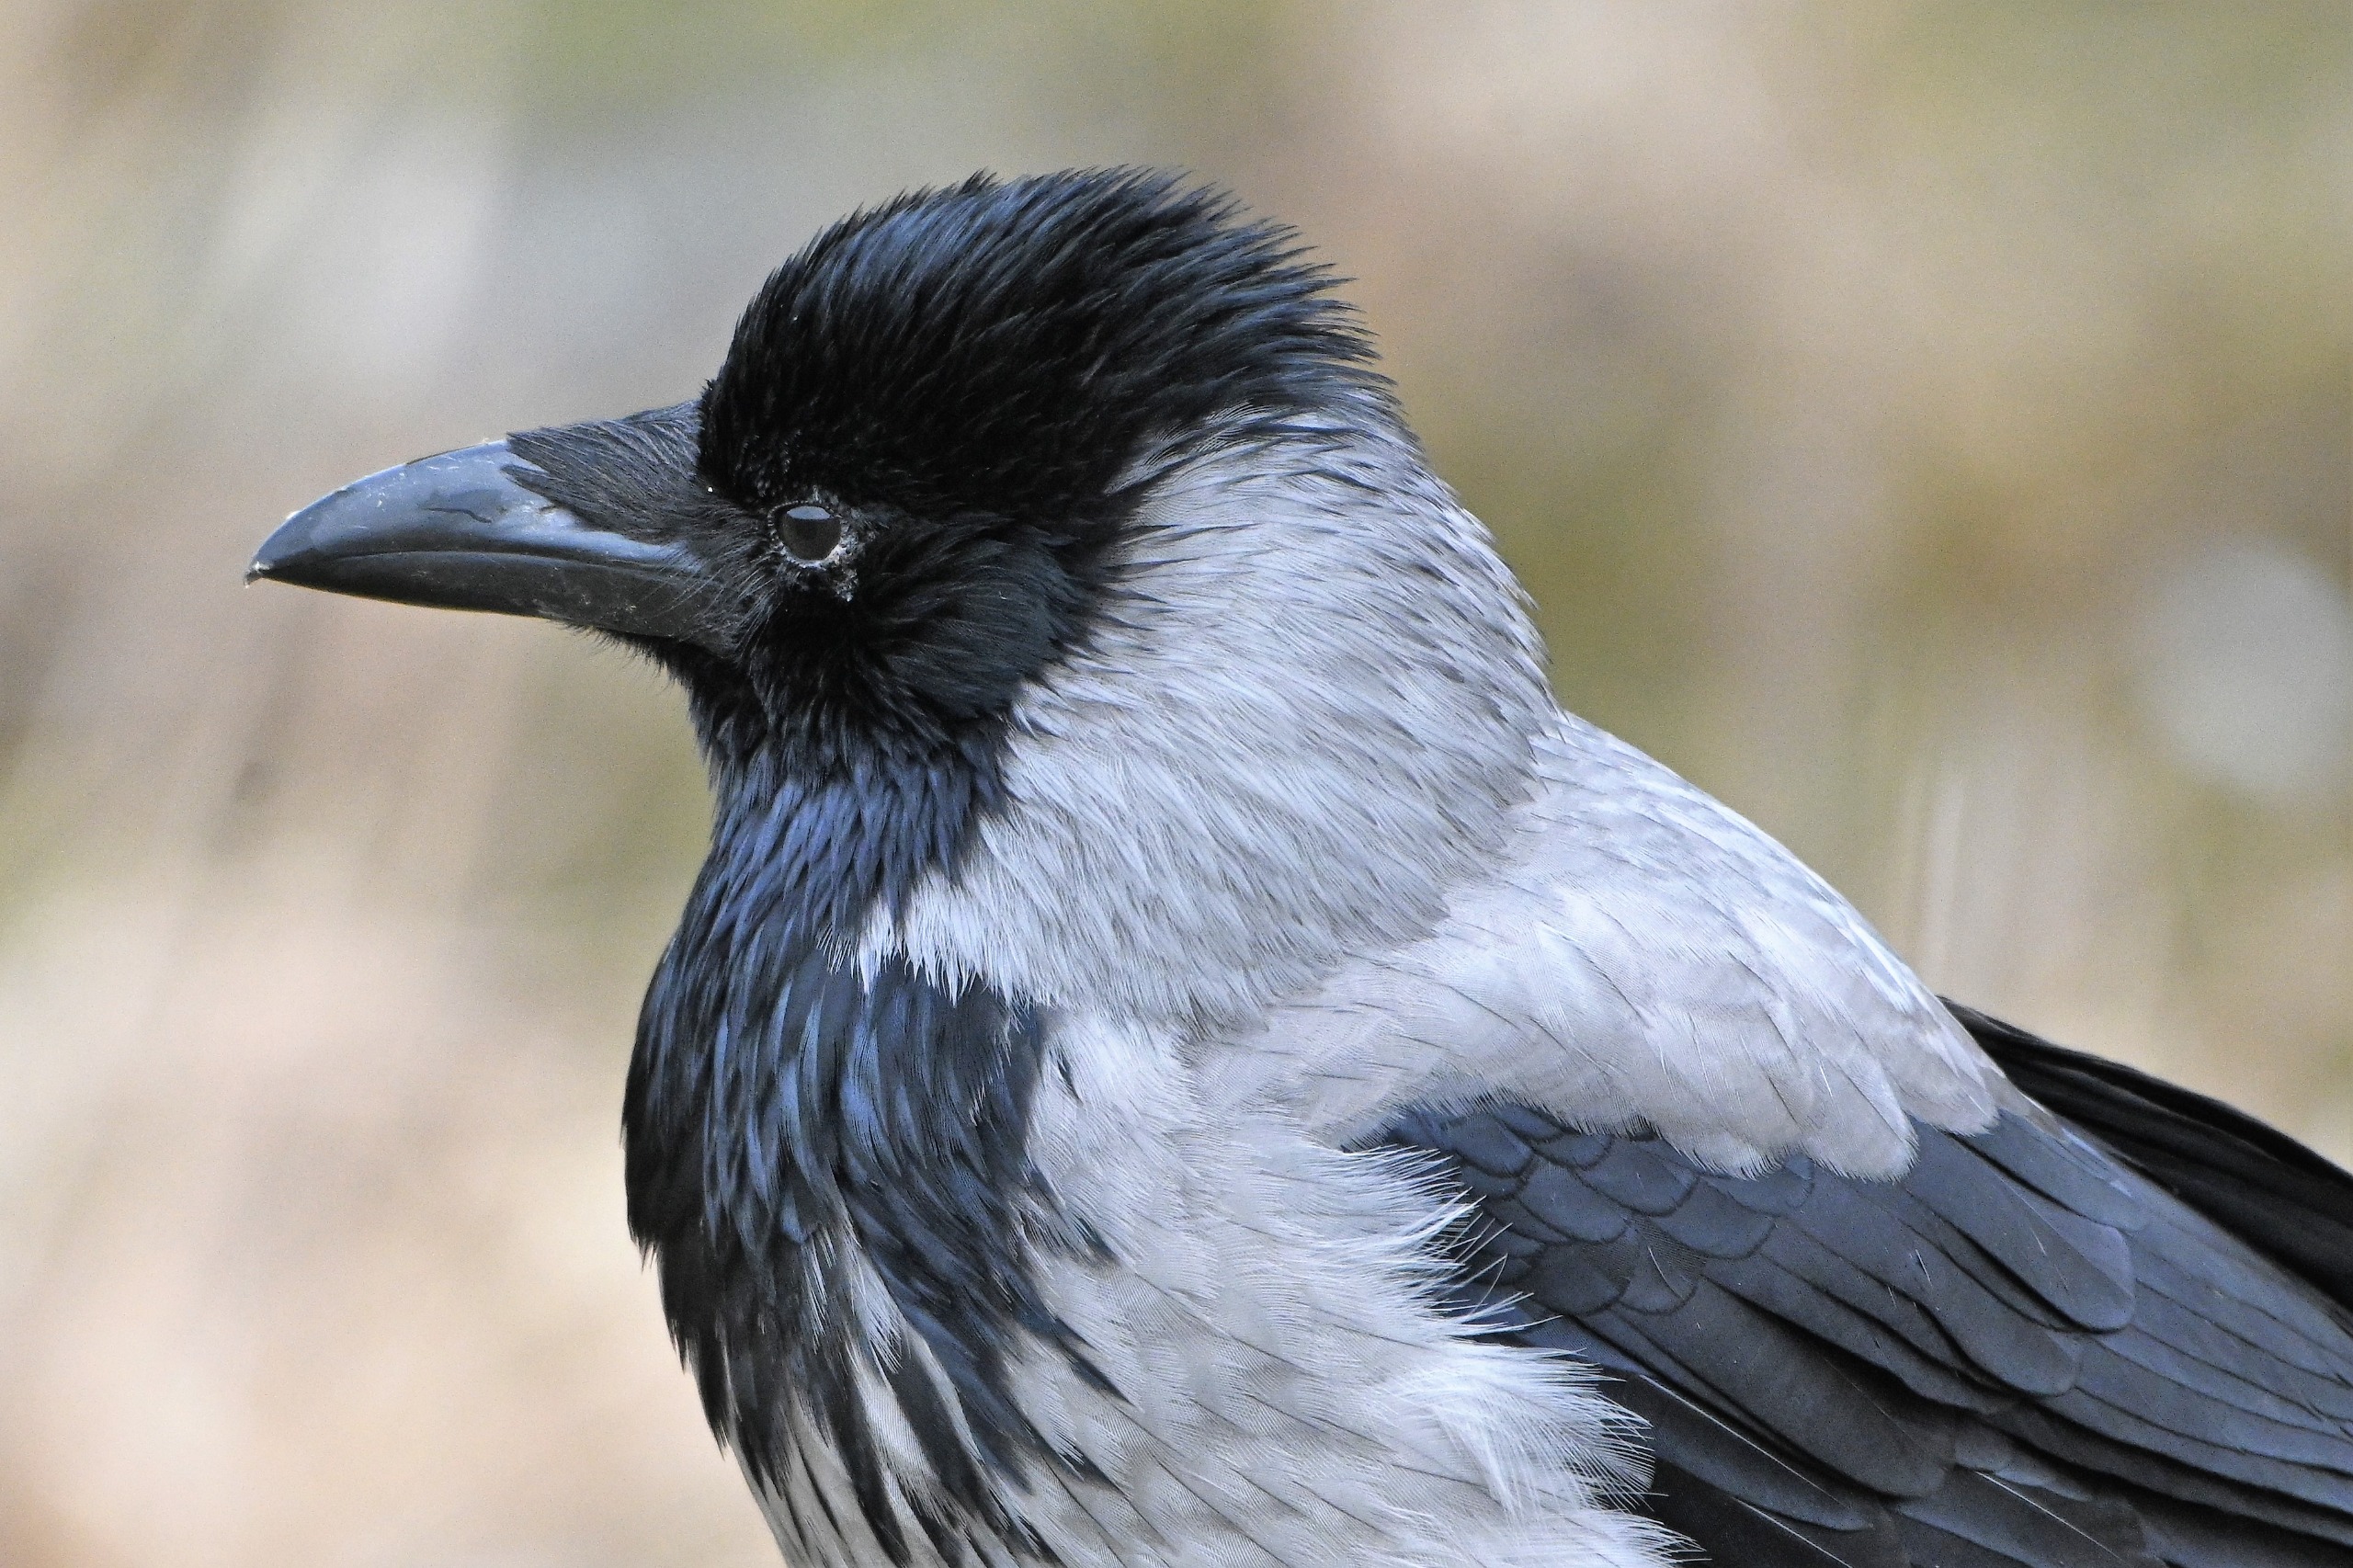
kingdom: Animalia
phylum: Chordata
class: Aves
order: Passeriformes
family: Corvidae
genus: Corvus
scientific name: Corvus cornix
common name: Gråkrage
